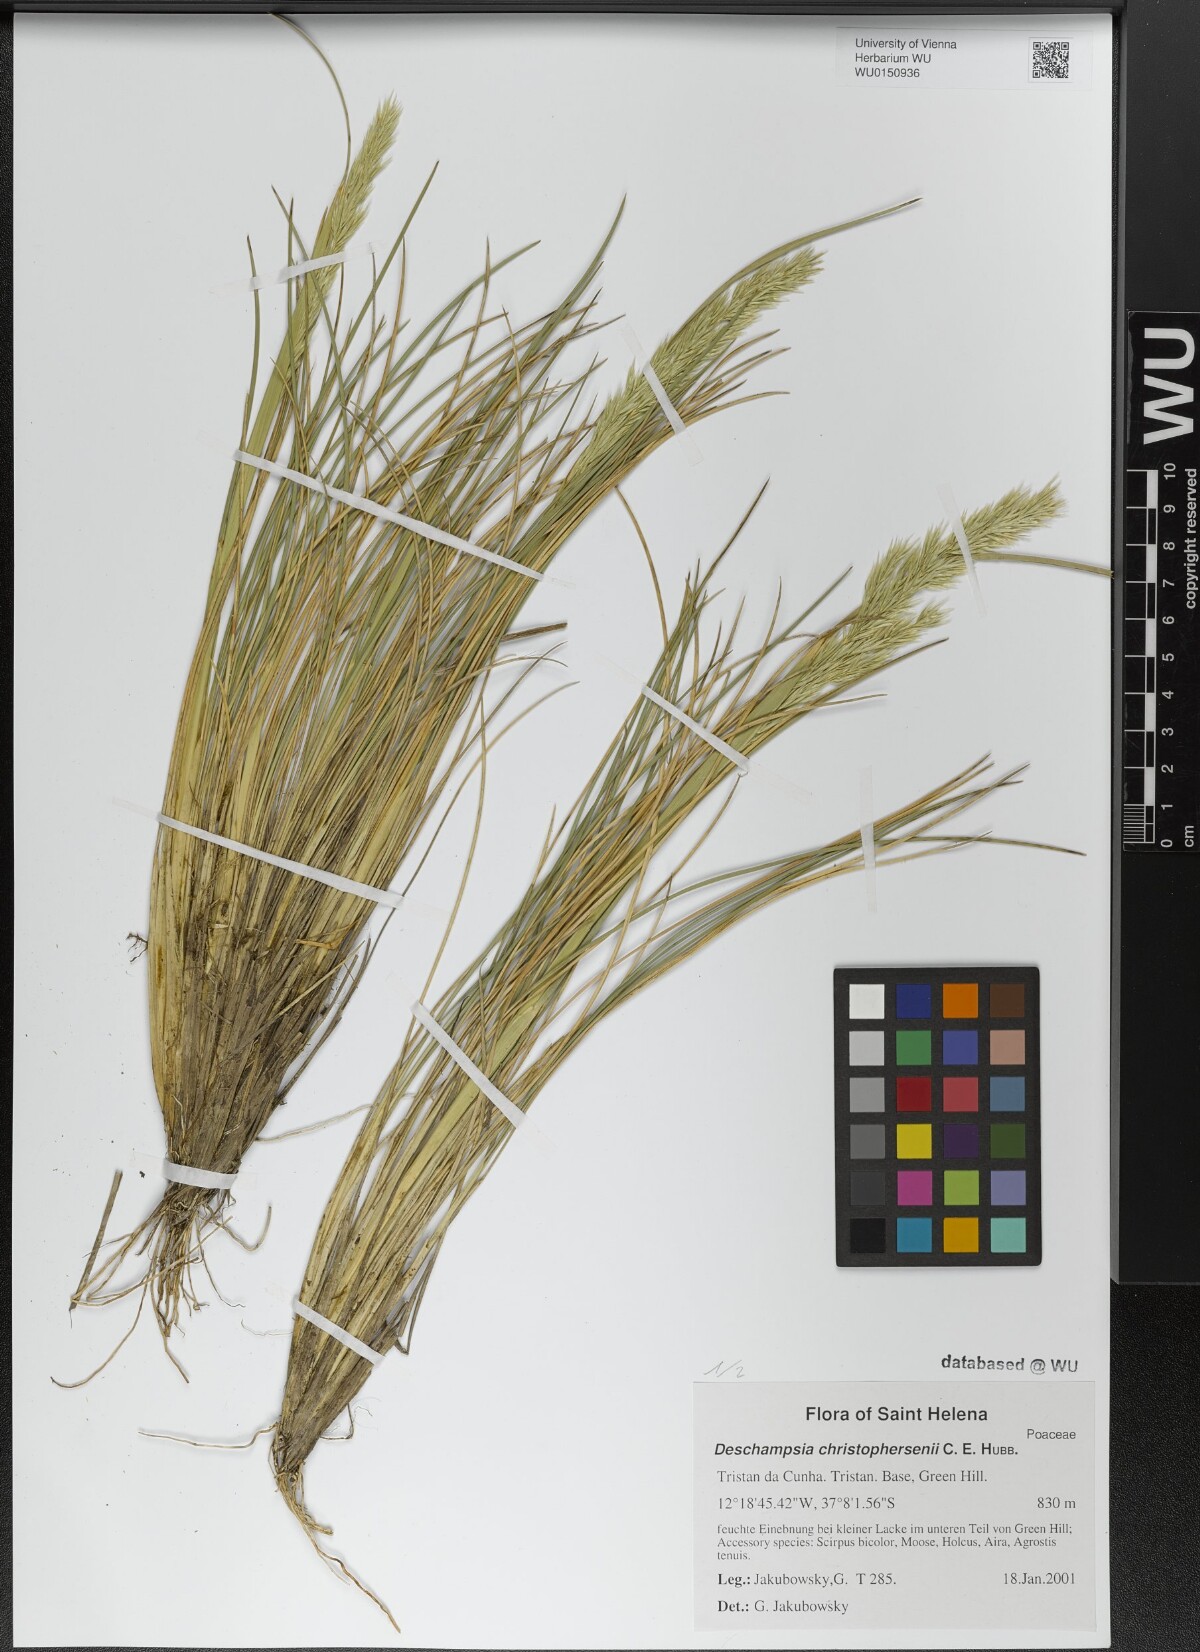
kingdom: Plantae
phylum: Tracheophyta
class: Liliopsida
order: Poales
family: Poaceae
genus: Deschampsia
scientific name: Deschampsia christophersenii
